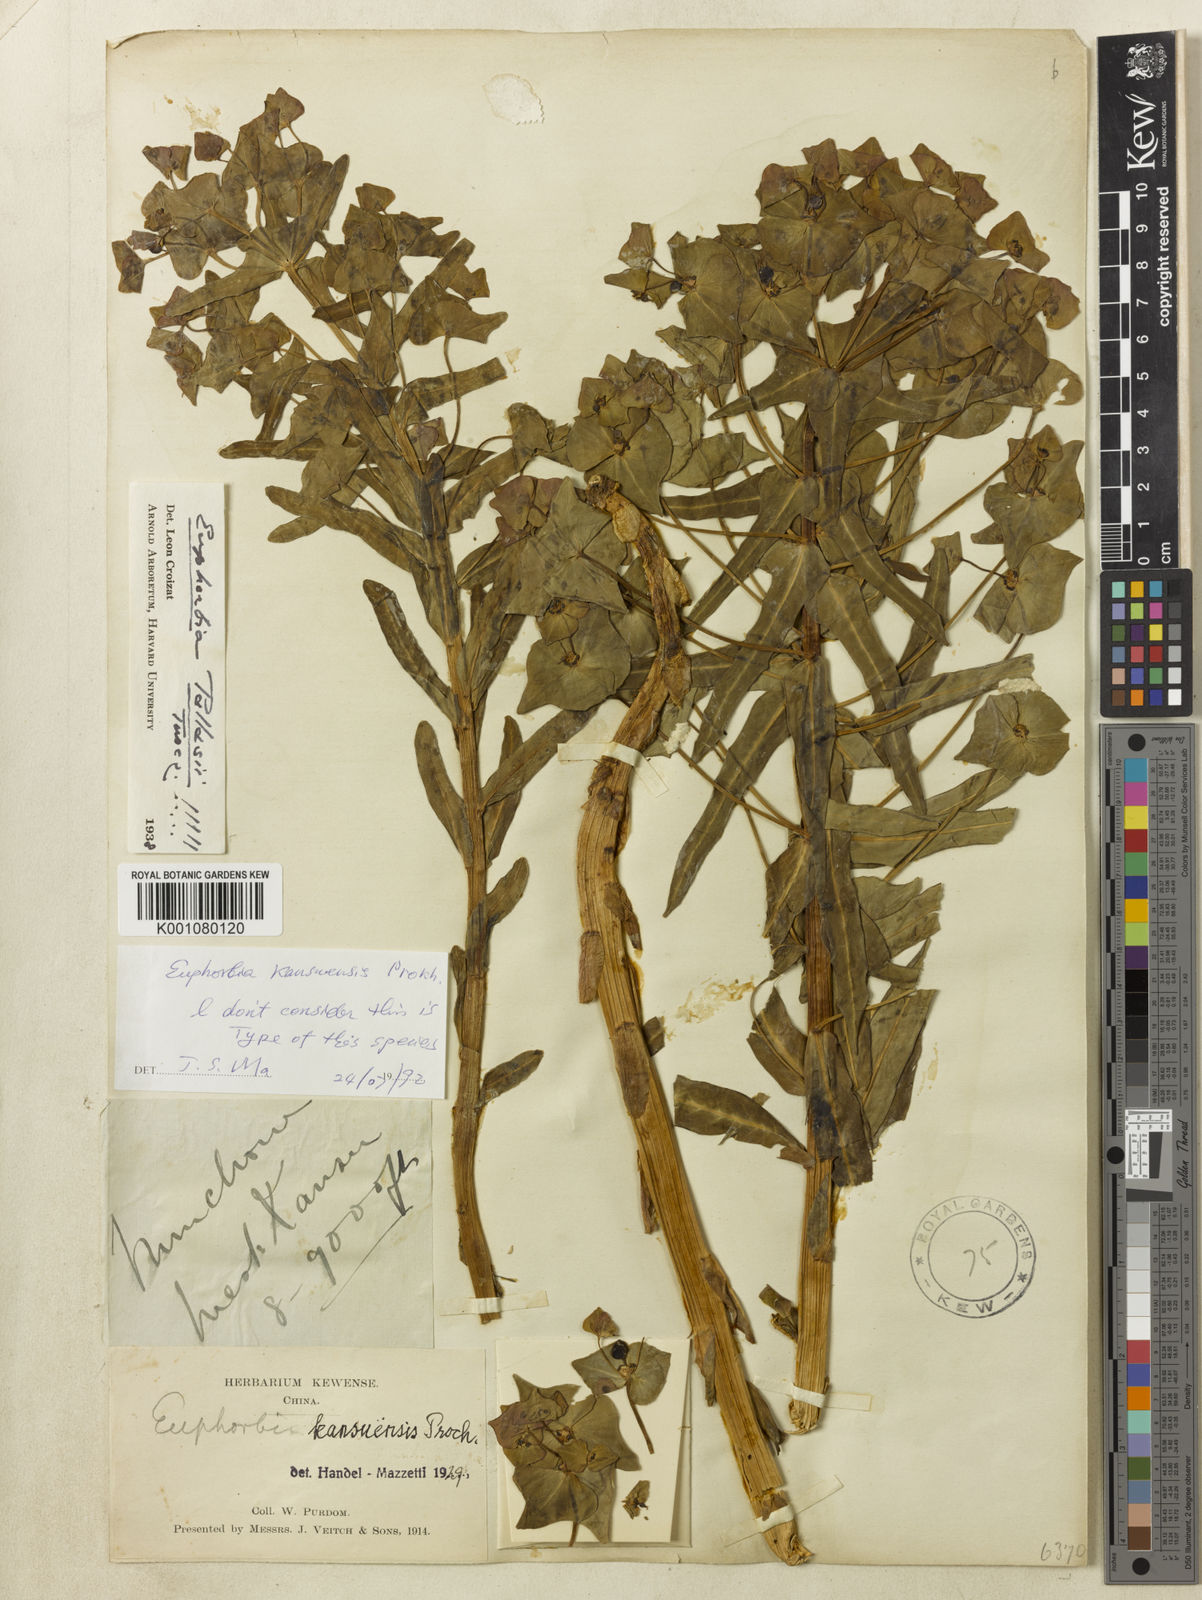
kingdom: Plantae
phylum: Tracheophyta
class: Magnoliopsida
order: Malpighiales
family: Euphorbiaceae
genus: Euphorbia
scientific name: Euphorbia kansuensis
